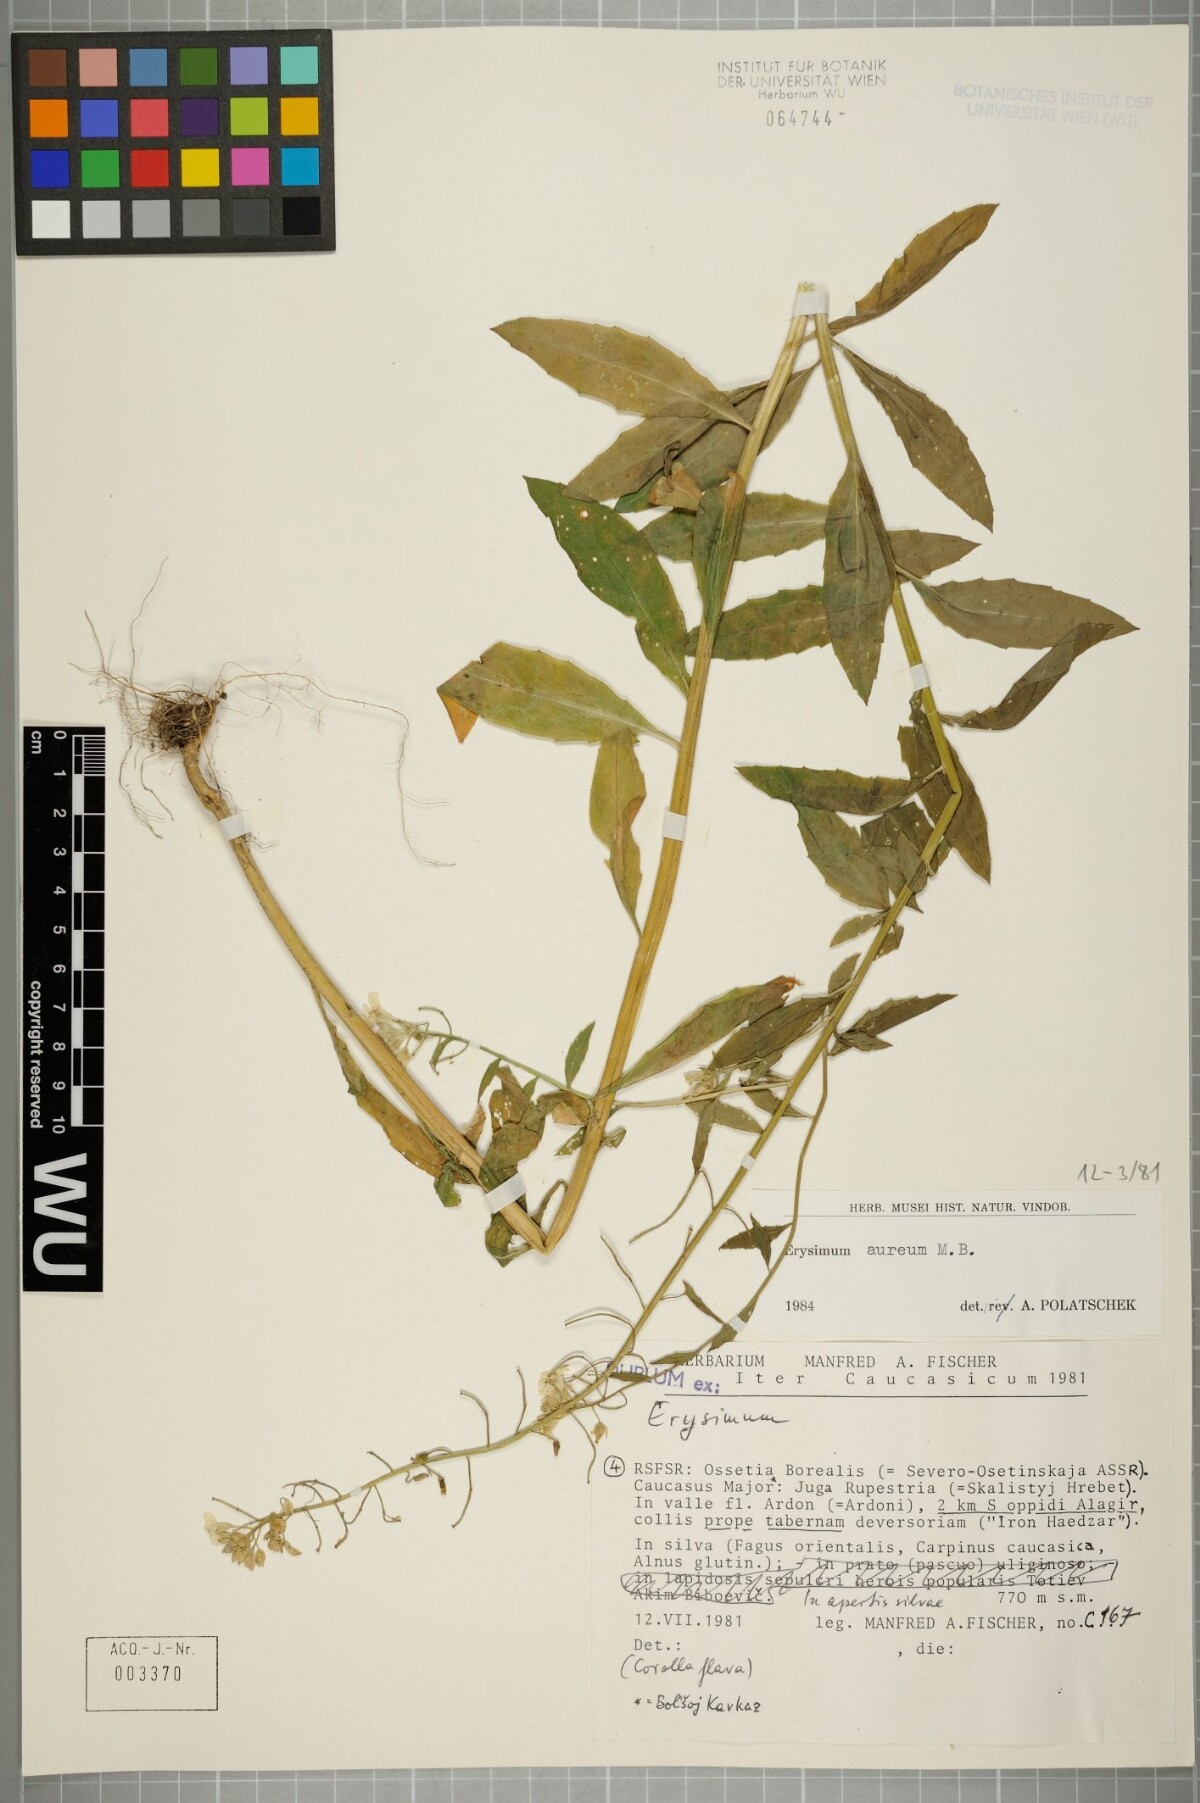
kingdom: Plantae
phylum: Tracheophyta
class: Magnoliopsida
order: Brassicales
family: Brassicaceae
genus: Erysimum
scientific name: Erysimum aureum
